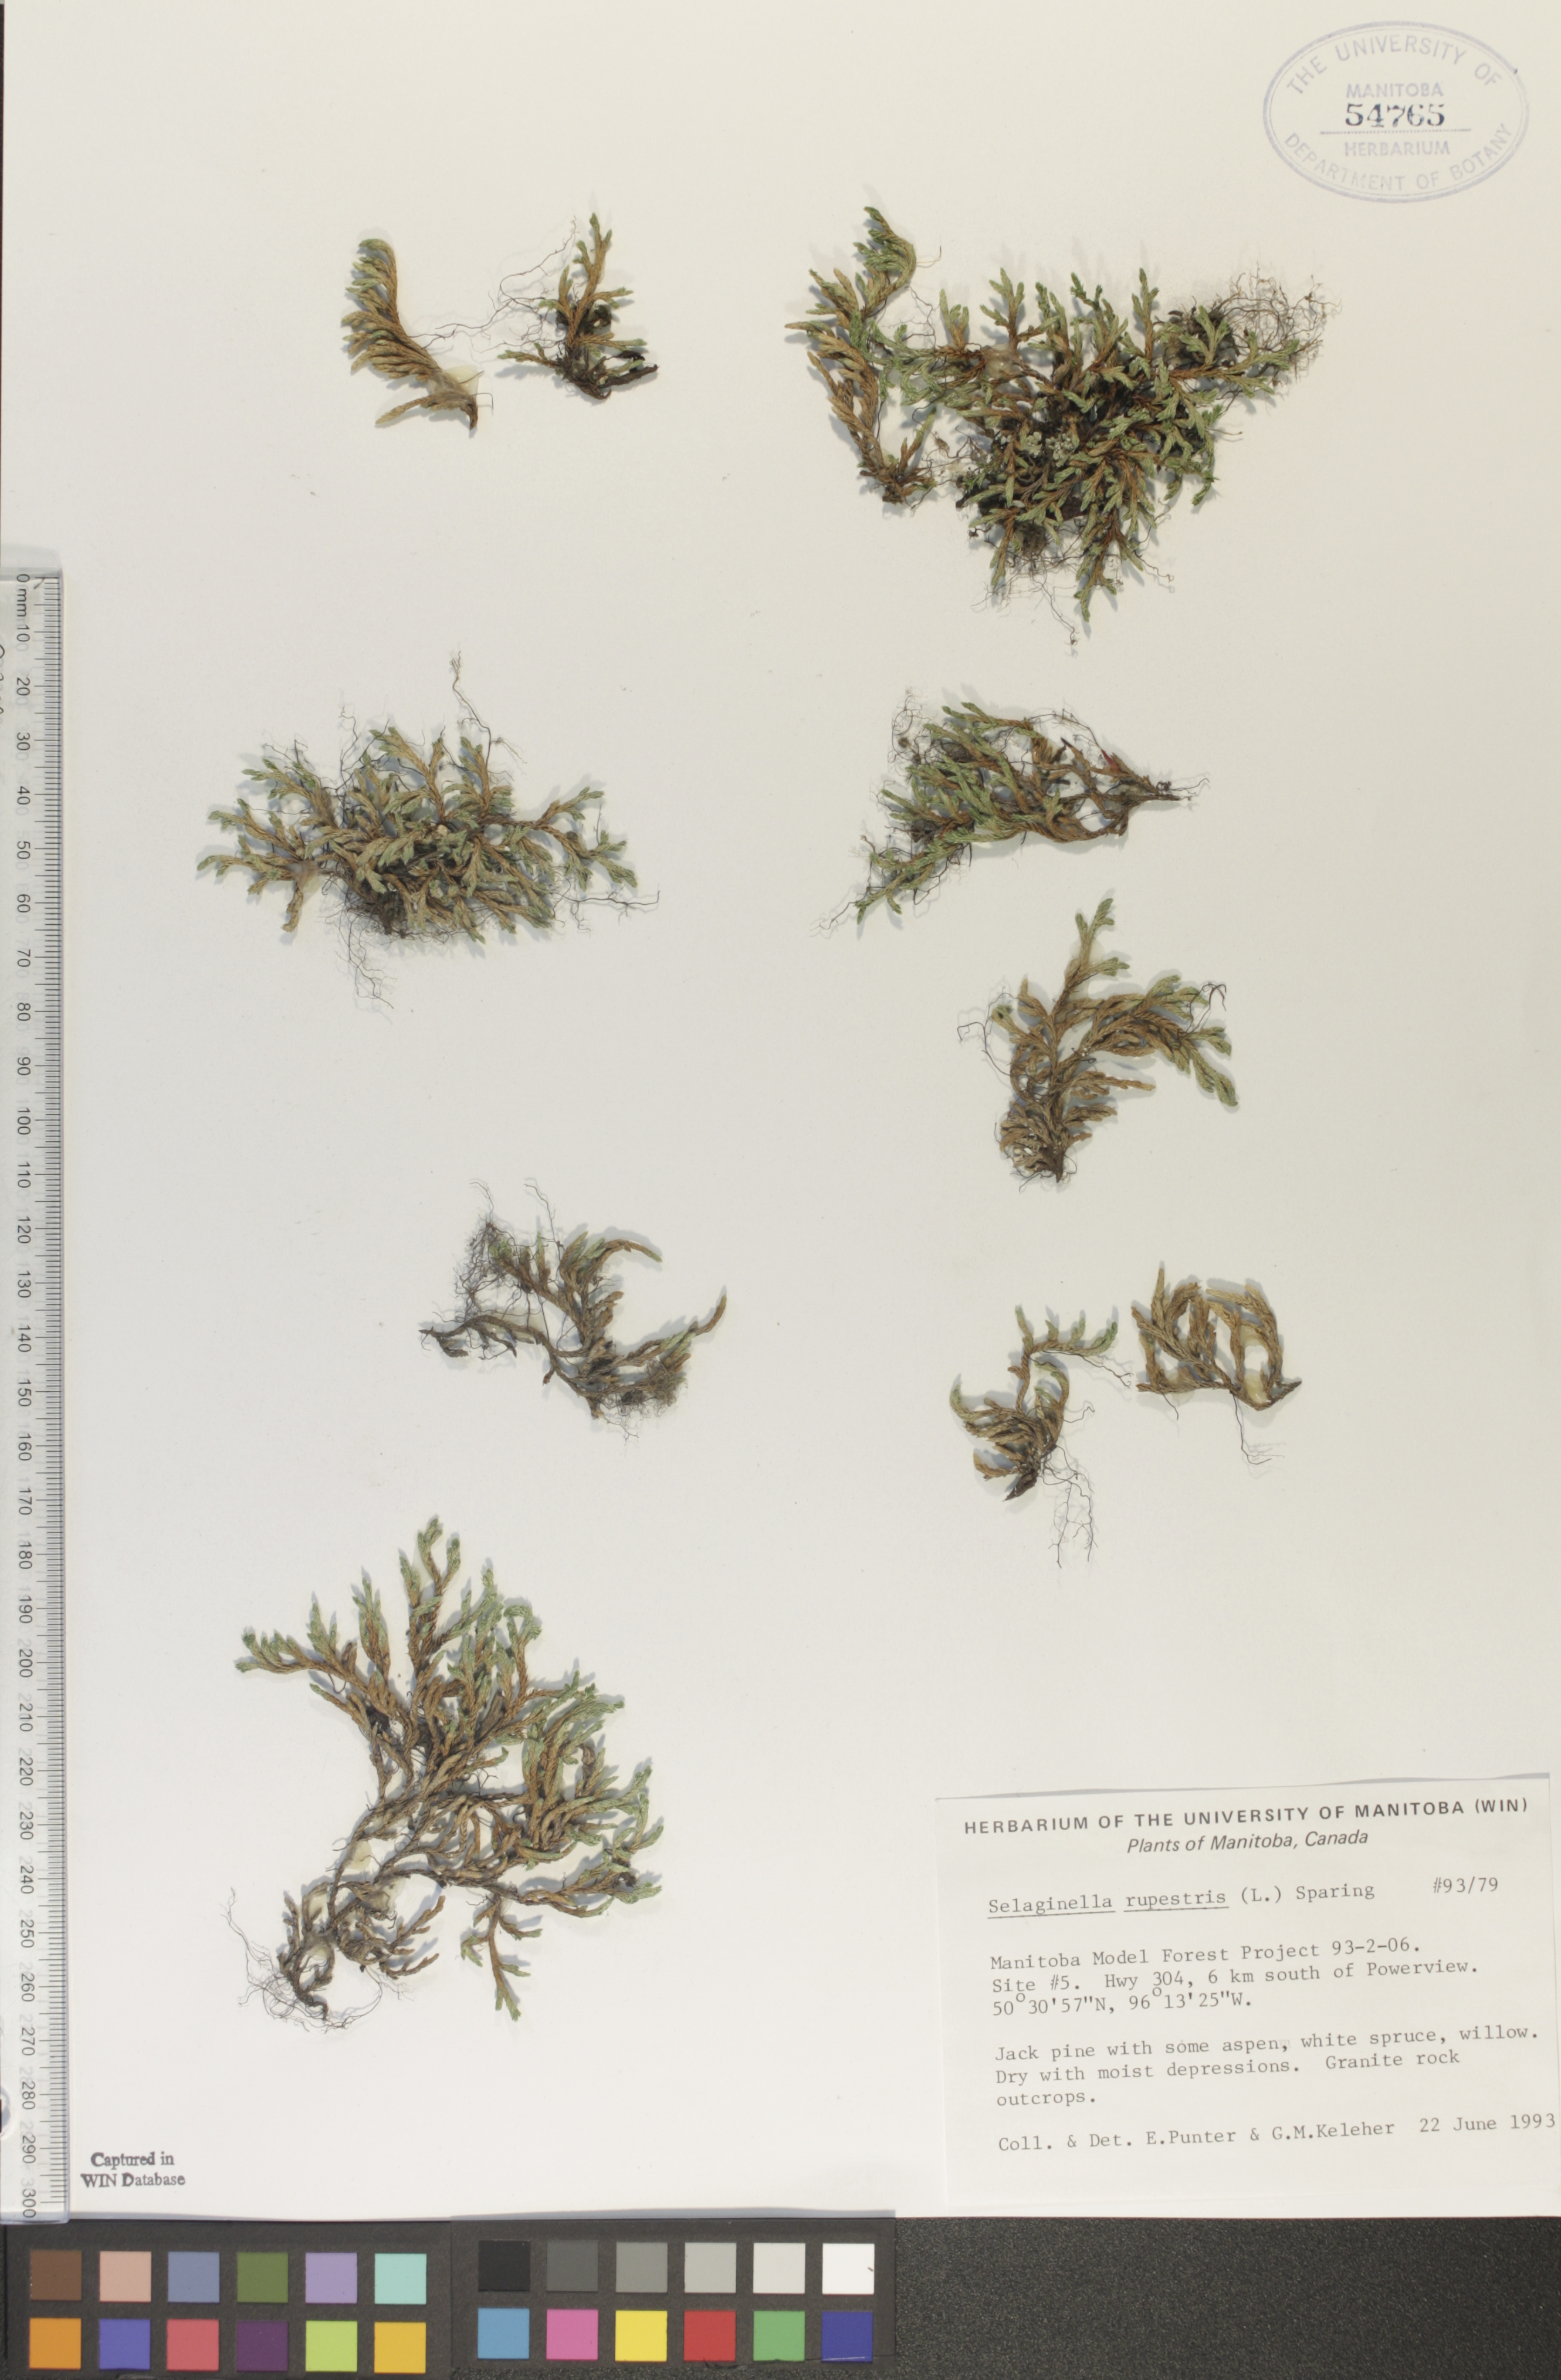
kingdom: Plantae
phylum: Tracheophyta
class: Lycopodiopsida
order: Selaginellales
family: Selaginellaceae
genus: Selaginella
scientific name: Selaginella rupestris
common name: Dwarf spikemoss
